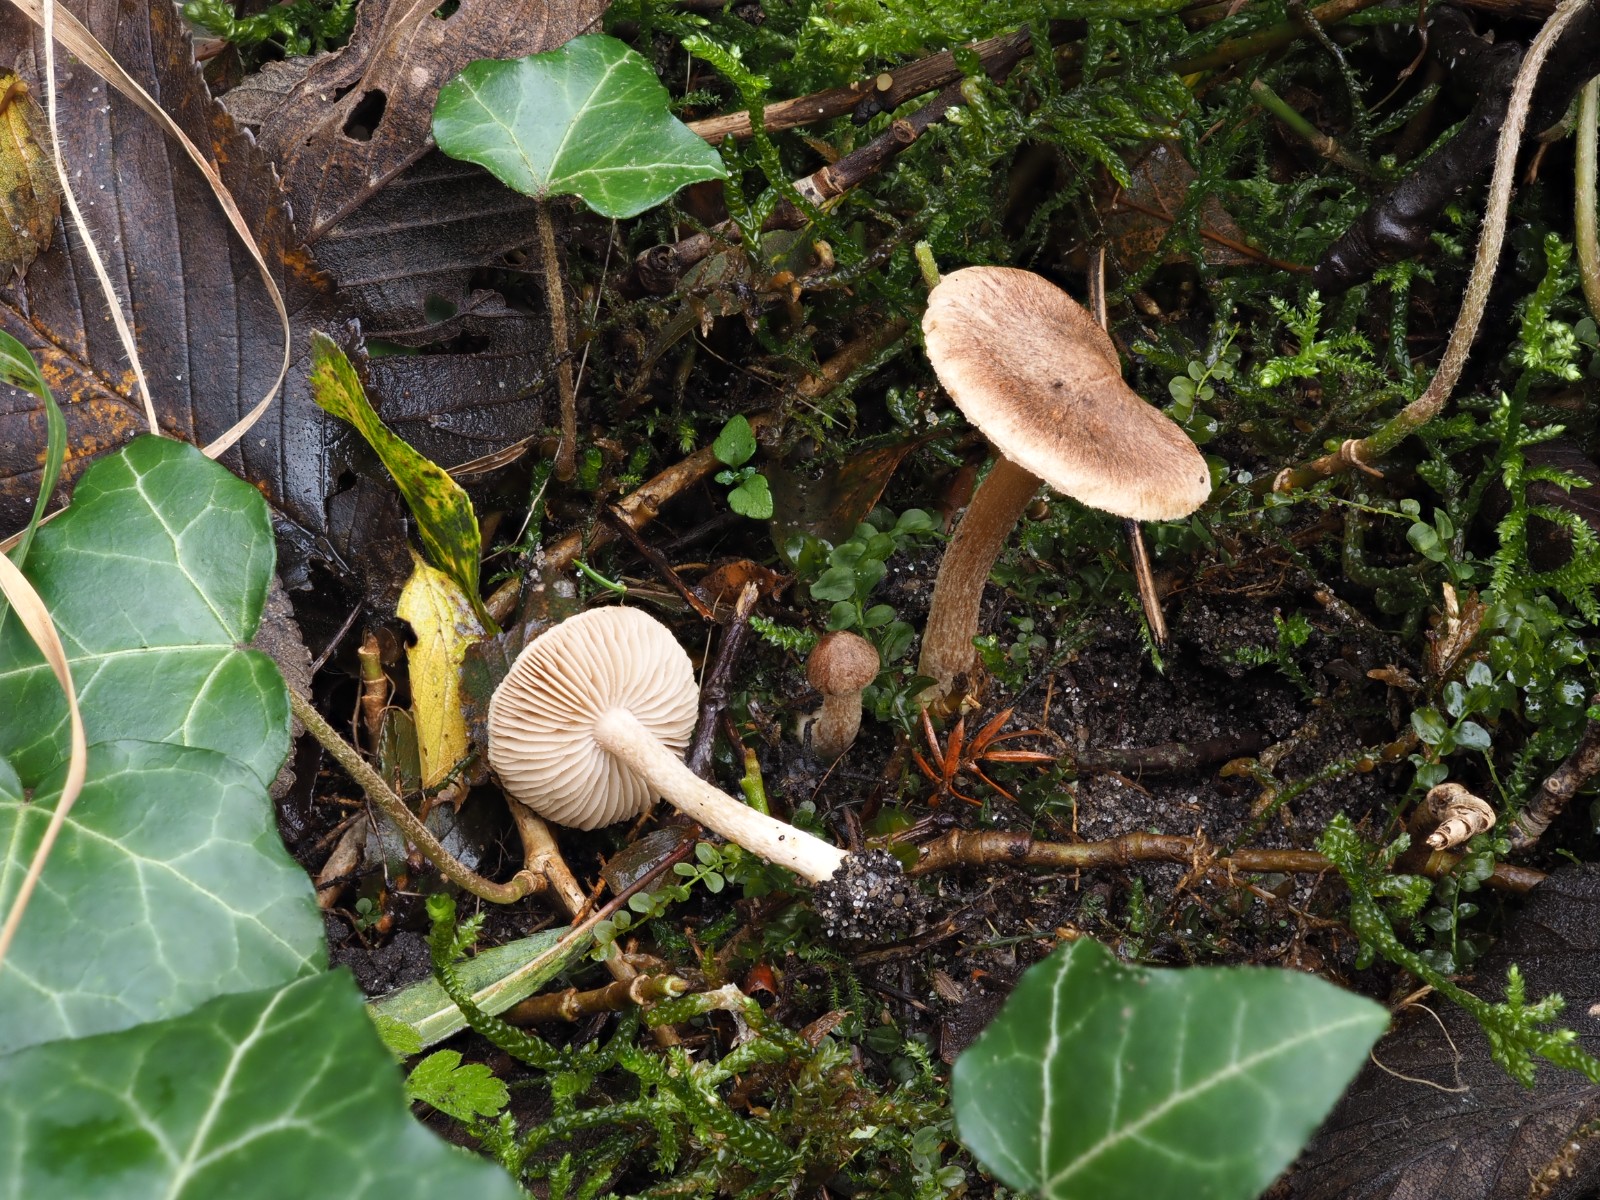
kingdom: Fungi
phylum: Basidiomycota
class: Agaricomycetes
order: Agaricales
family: Inocybaceae
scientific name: Inocybaceae
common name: trævlhatfamilien
